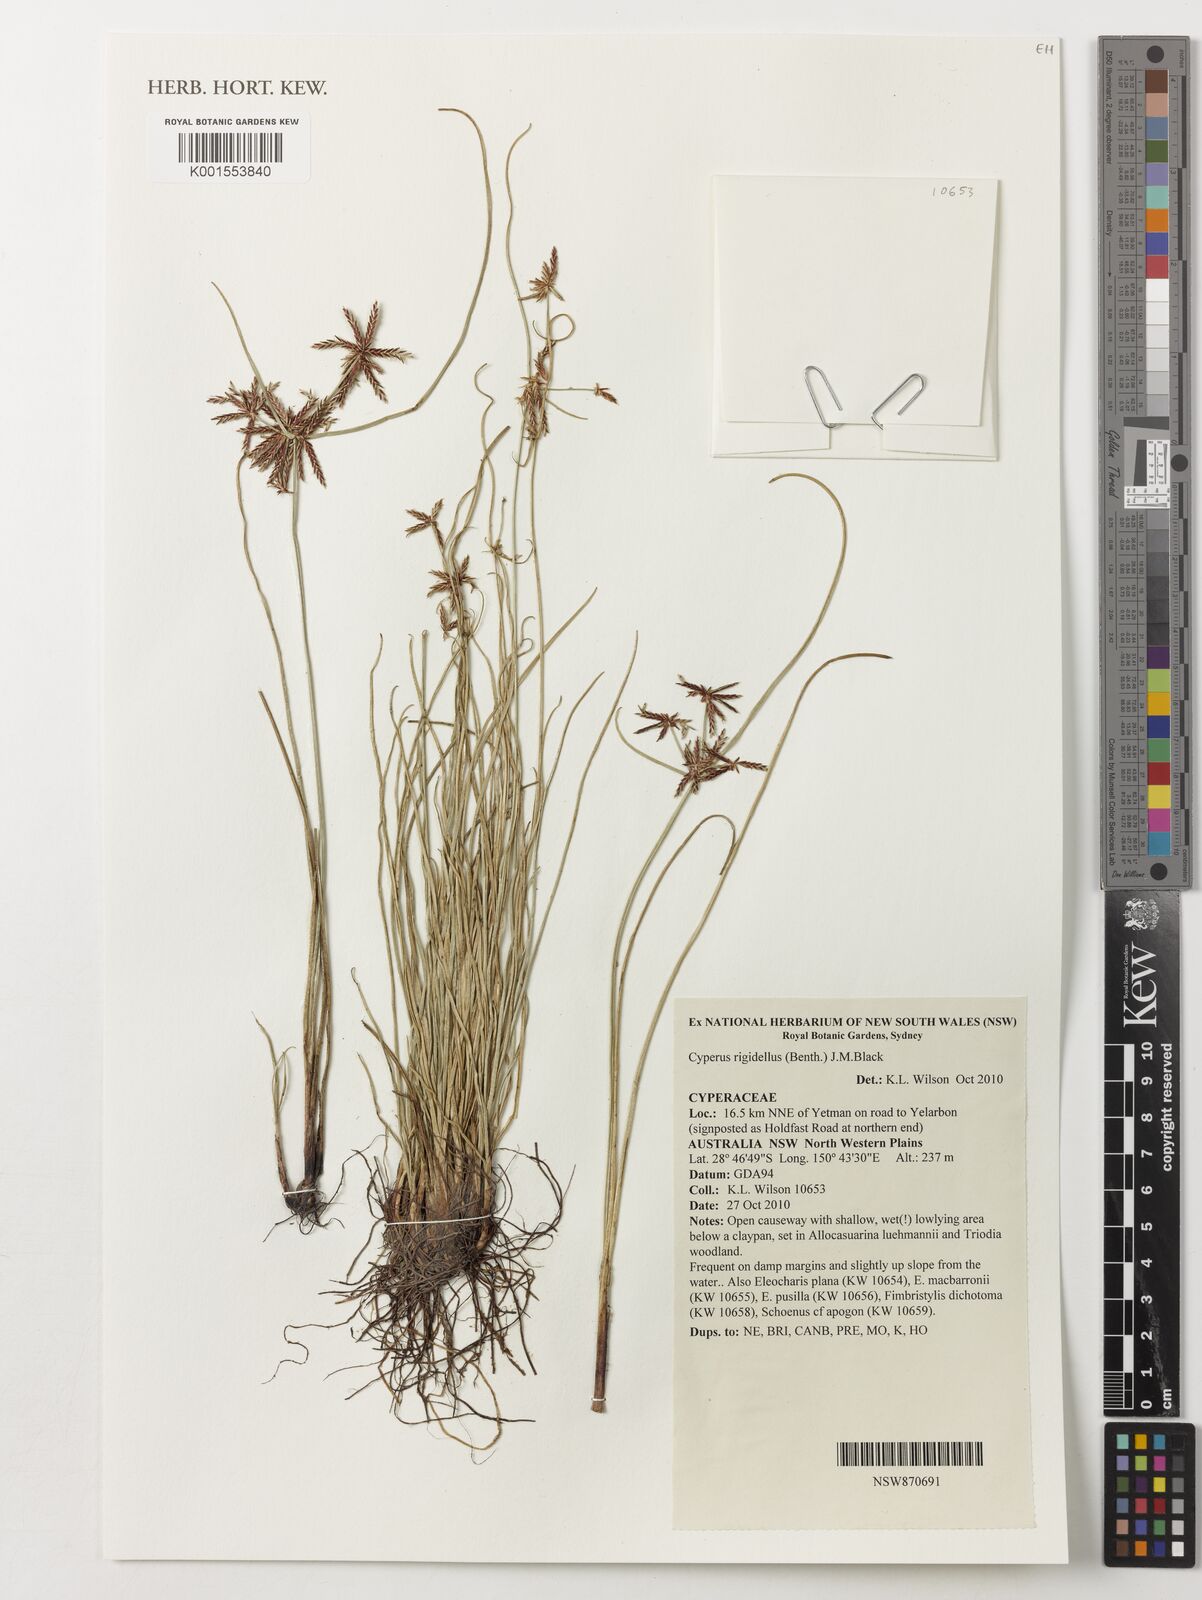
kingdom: Plantae
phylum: Tracheophyta
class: Liliopsida
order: Poales
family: Cyperaceae
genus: Cyperus
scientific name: Cyperus rigidellus
